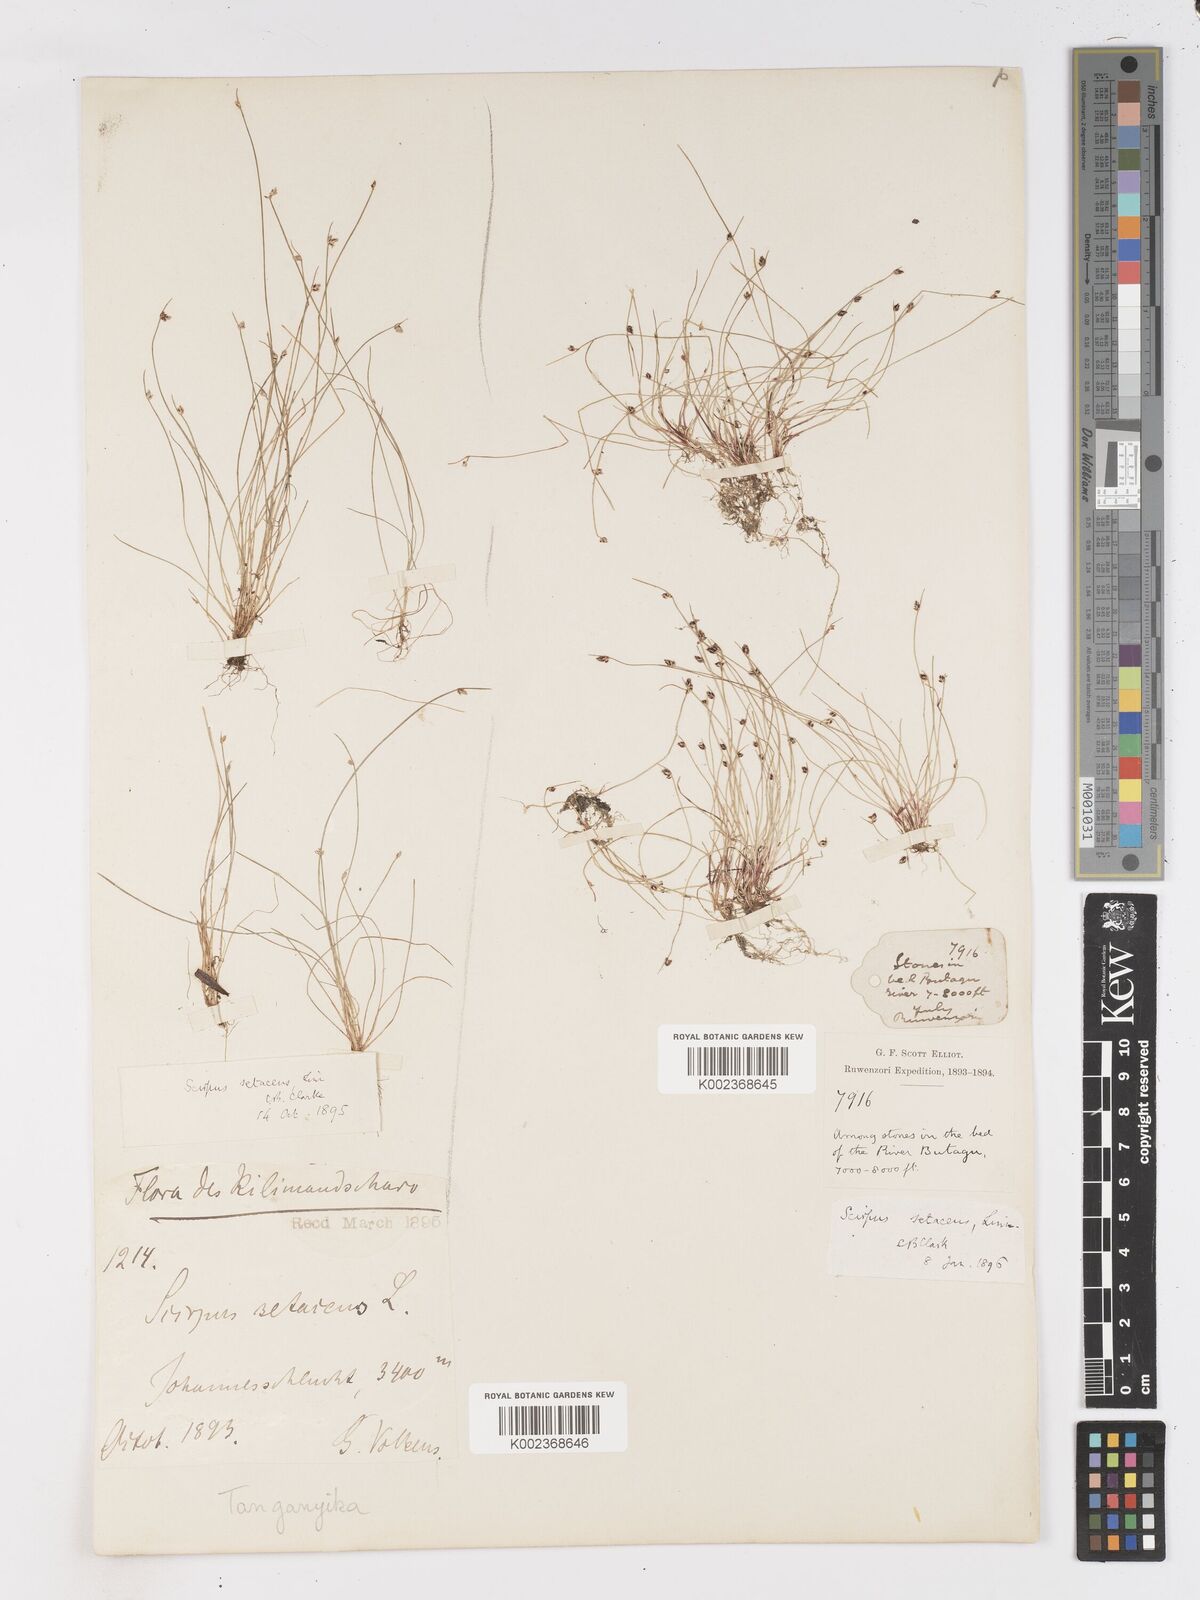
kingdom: Plantae
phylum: Tracheophyta
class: Liliopsida
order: Poales
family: Cyperaceae
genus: Isolepis
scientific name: Isolepis setacea
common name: Bristle club-rush
